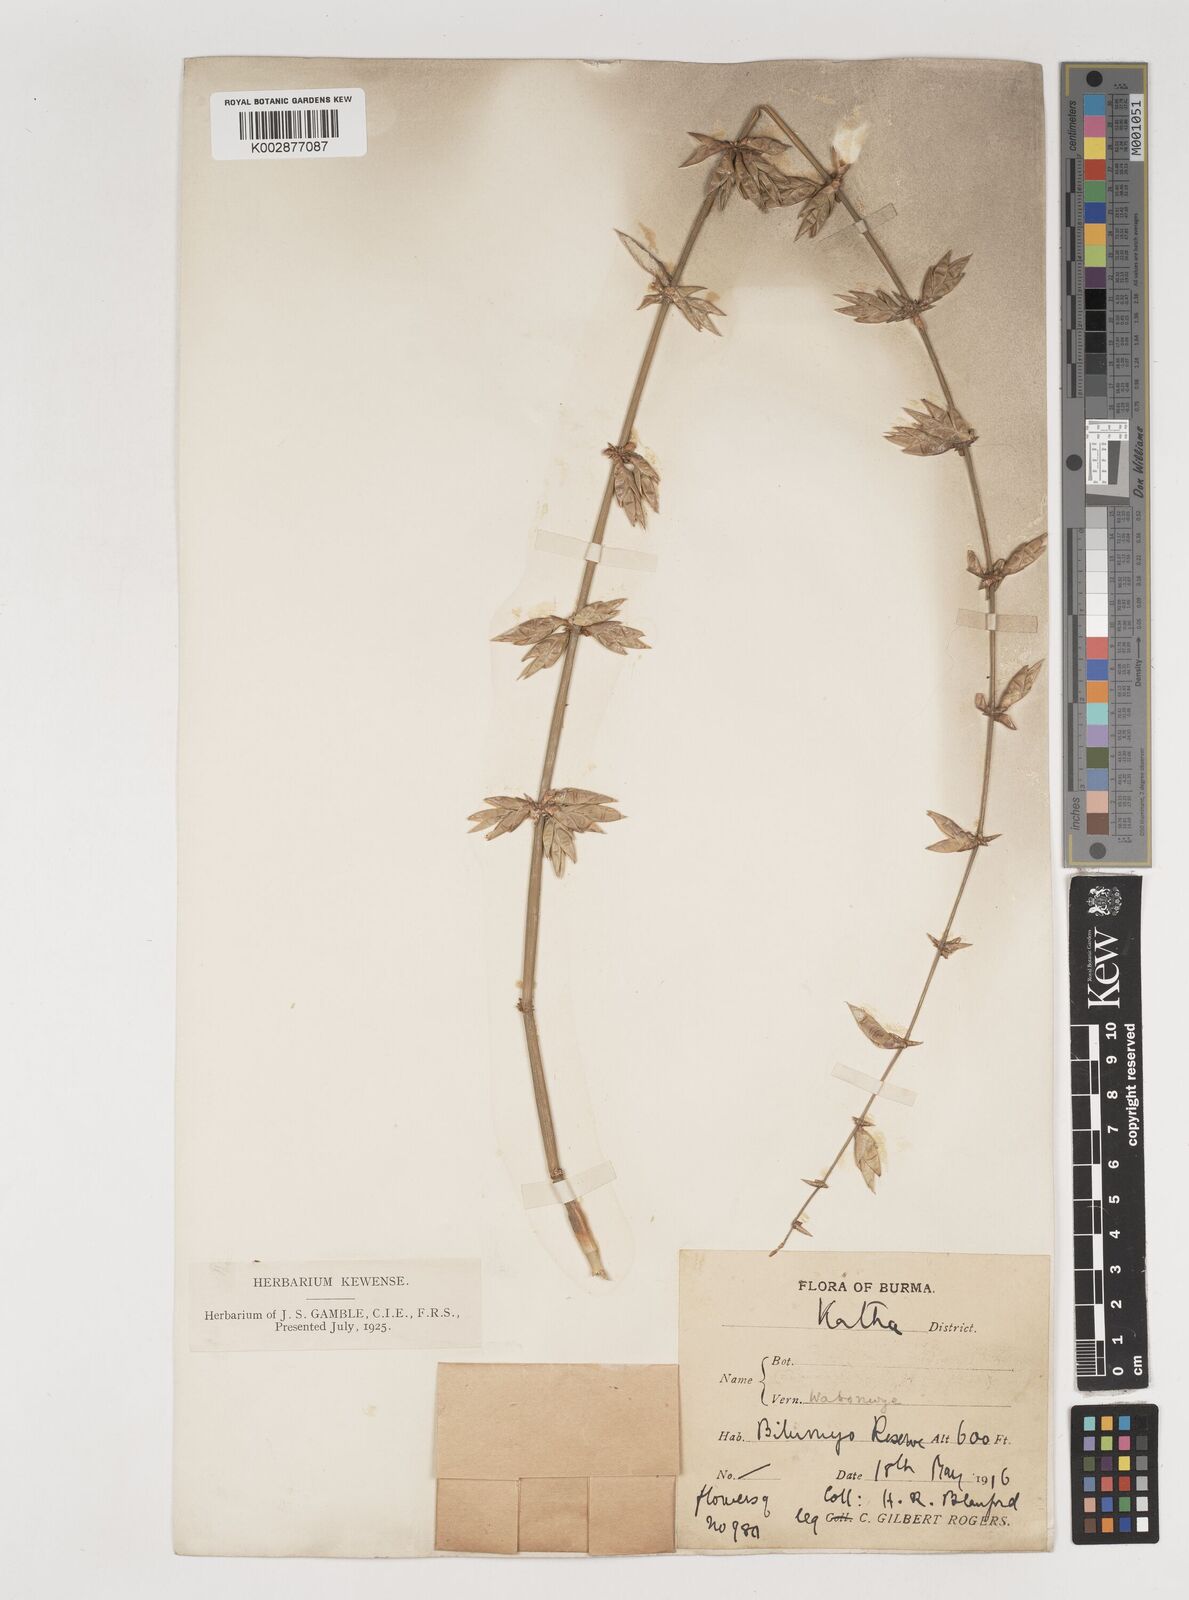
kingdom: Plantae
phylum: Tracheophyta
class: Liliopsida
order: Poales
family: Poaceae
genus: Bambusa
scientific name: Bambusa
